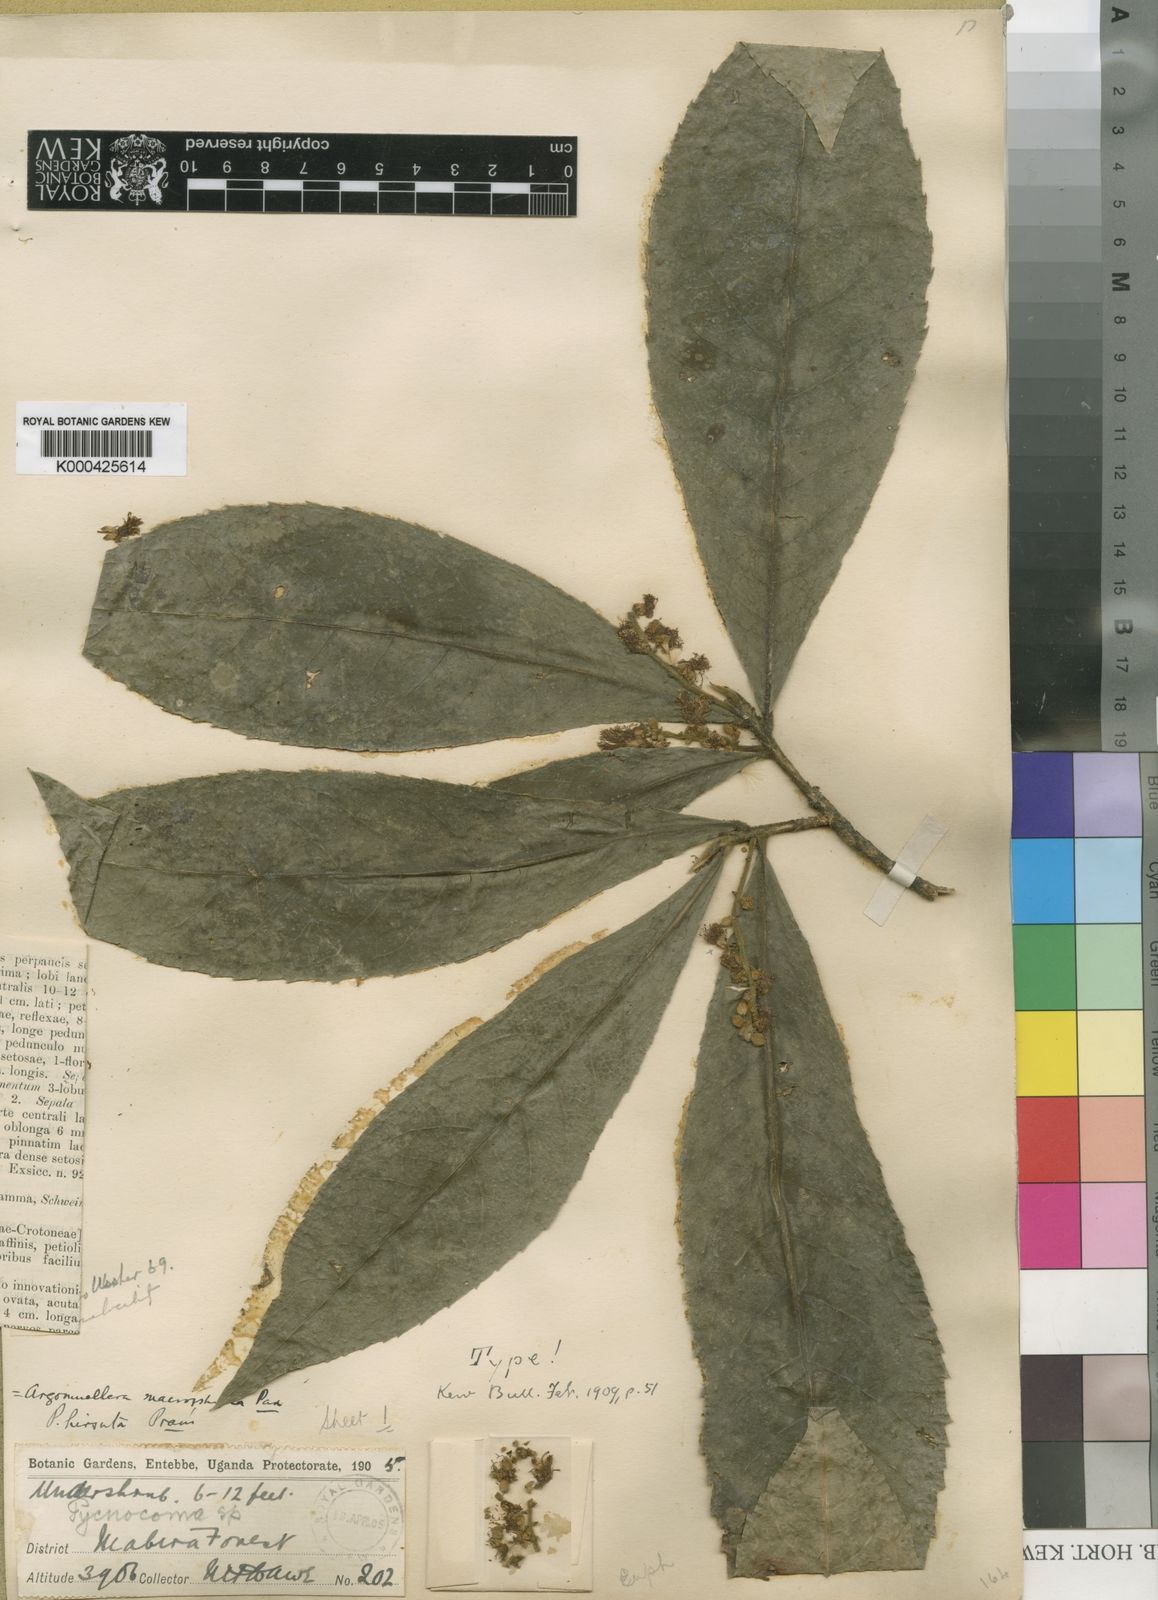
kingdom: Plantae
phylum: Tracheophyta
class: Magnoliopsida
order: Malpighiales
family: Euphorbiaceae
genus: Argomuellera
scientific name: Argomuellera macrophylla
